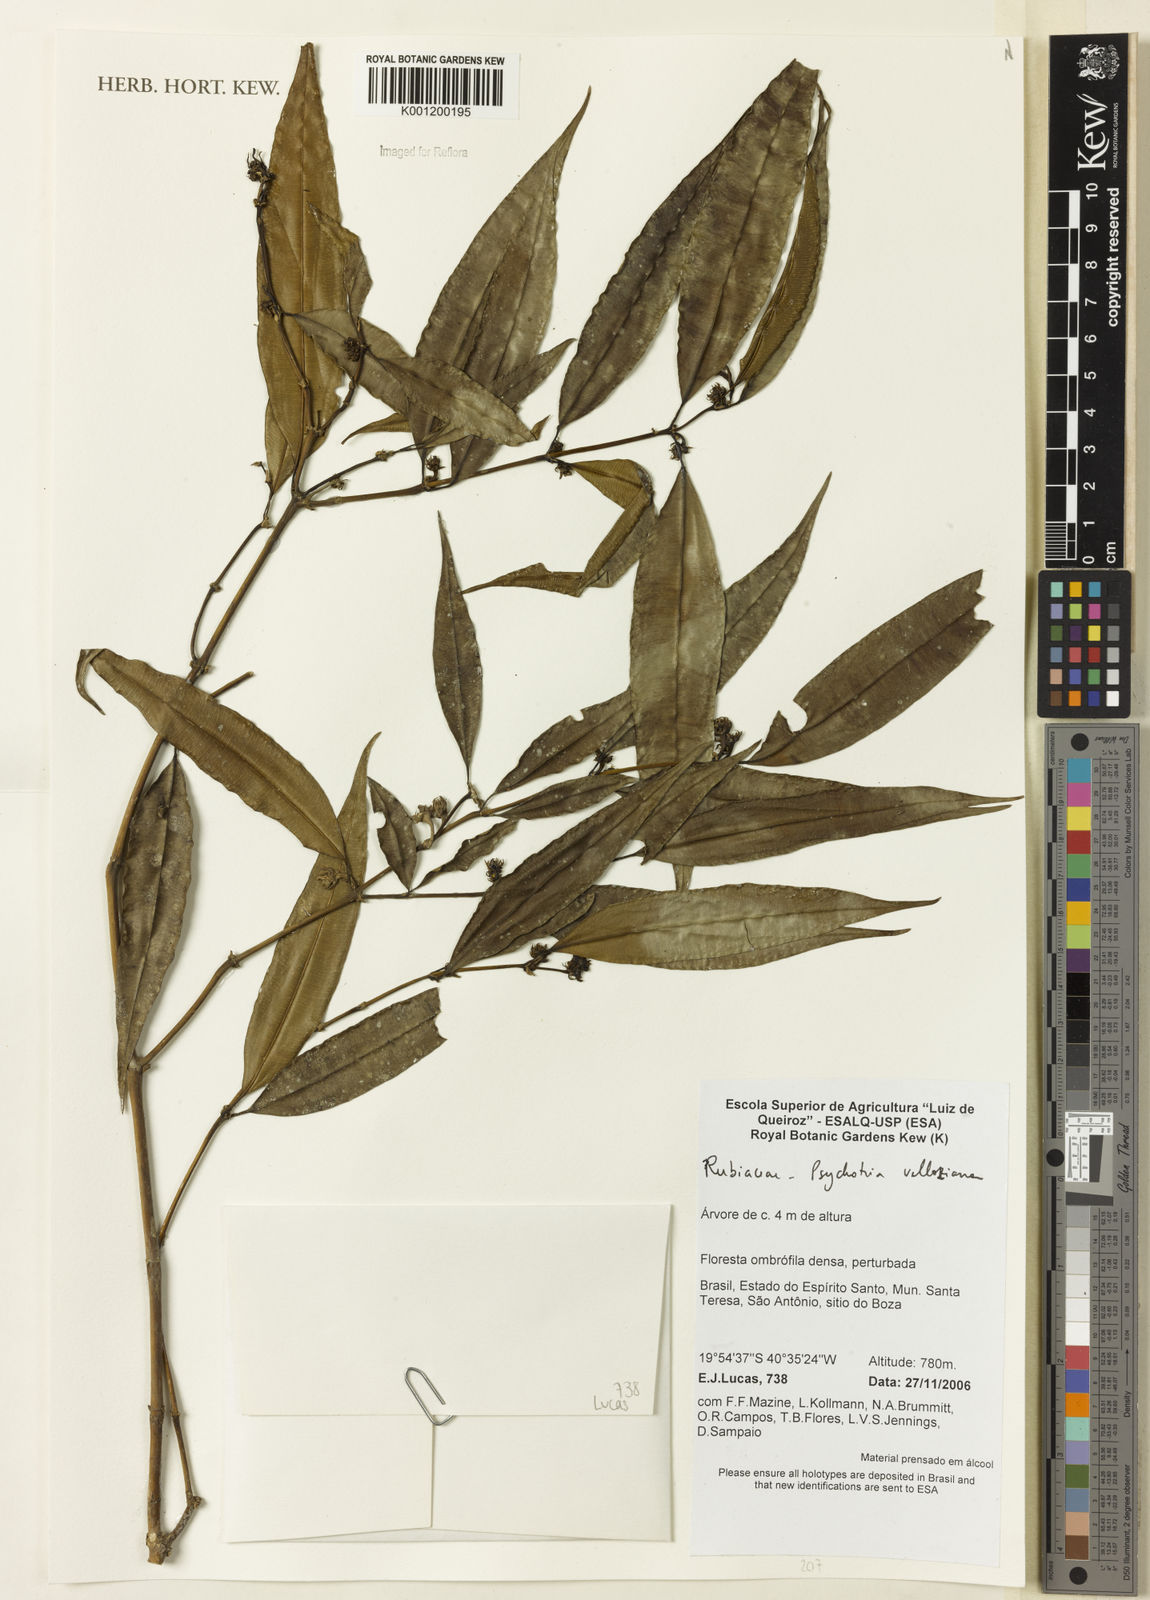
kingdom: Plantae
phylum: Tracheophyta
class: Magnoliopsida
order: Gentianales
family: Rubiaceae
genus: Palicourea
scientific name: Palicourea sessilis
